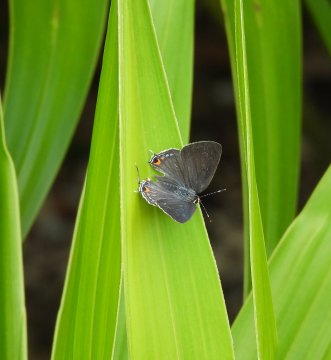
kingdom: Animalia
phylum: Arthropoda
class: Insecta
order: Lepidoptera
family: Lycaenidae
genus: Satyrium
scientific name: Satyrium
